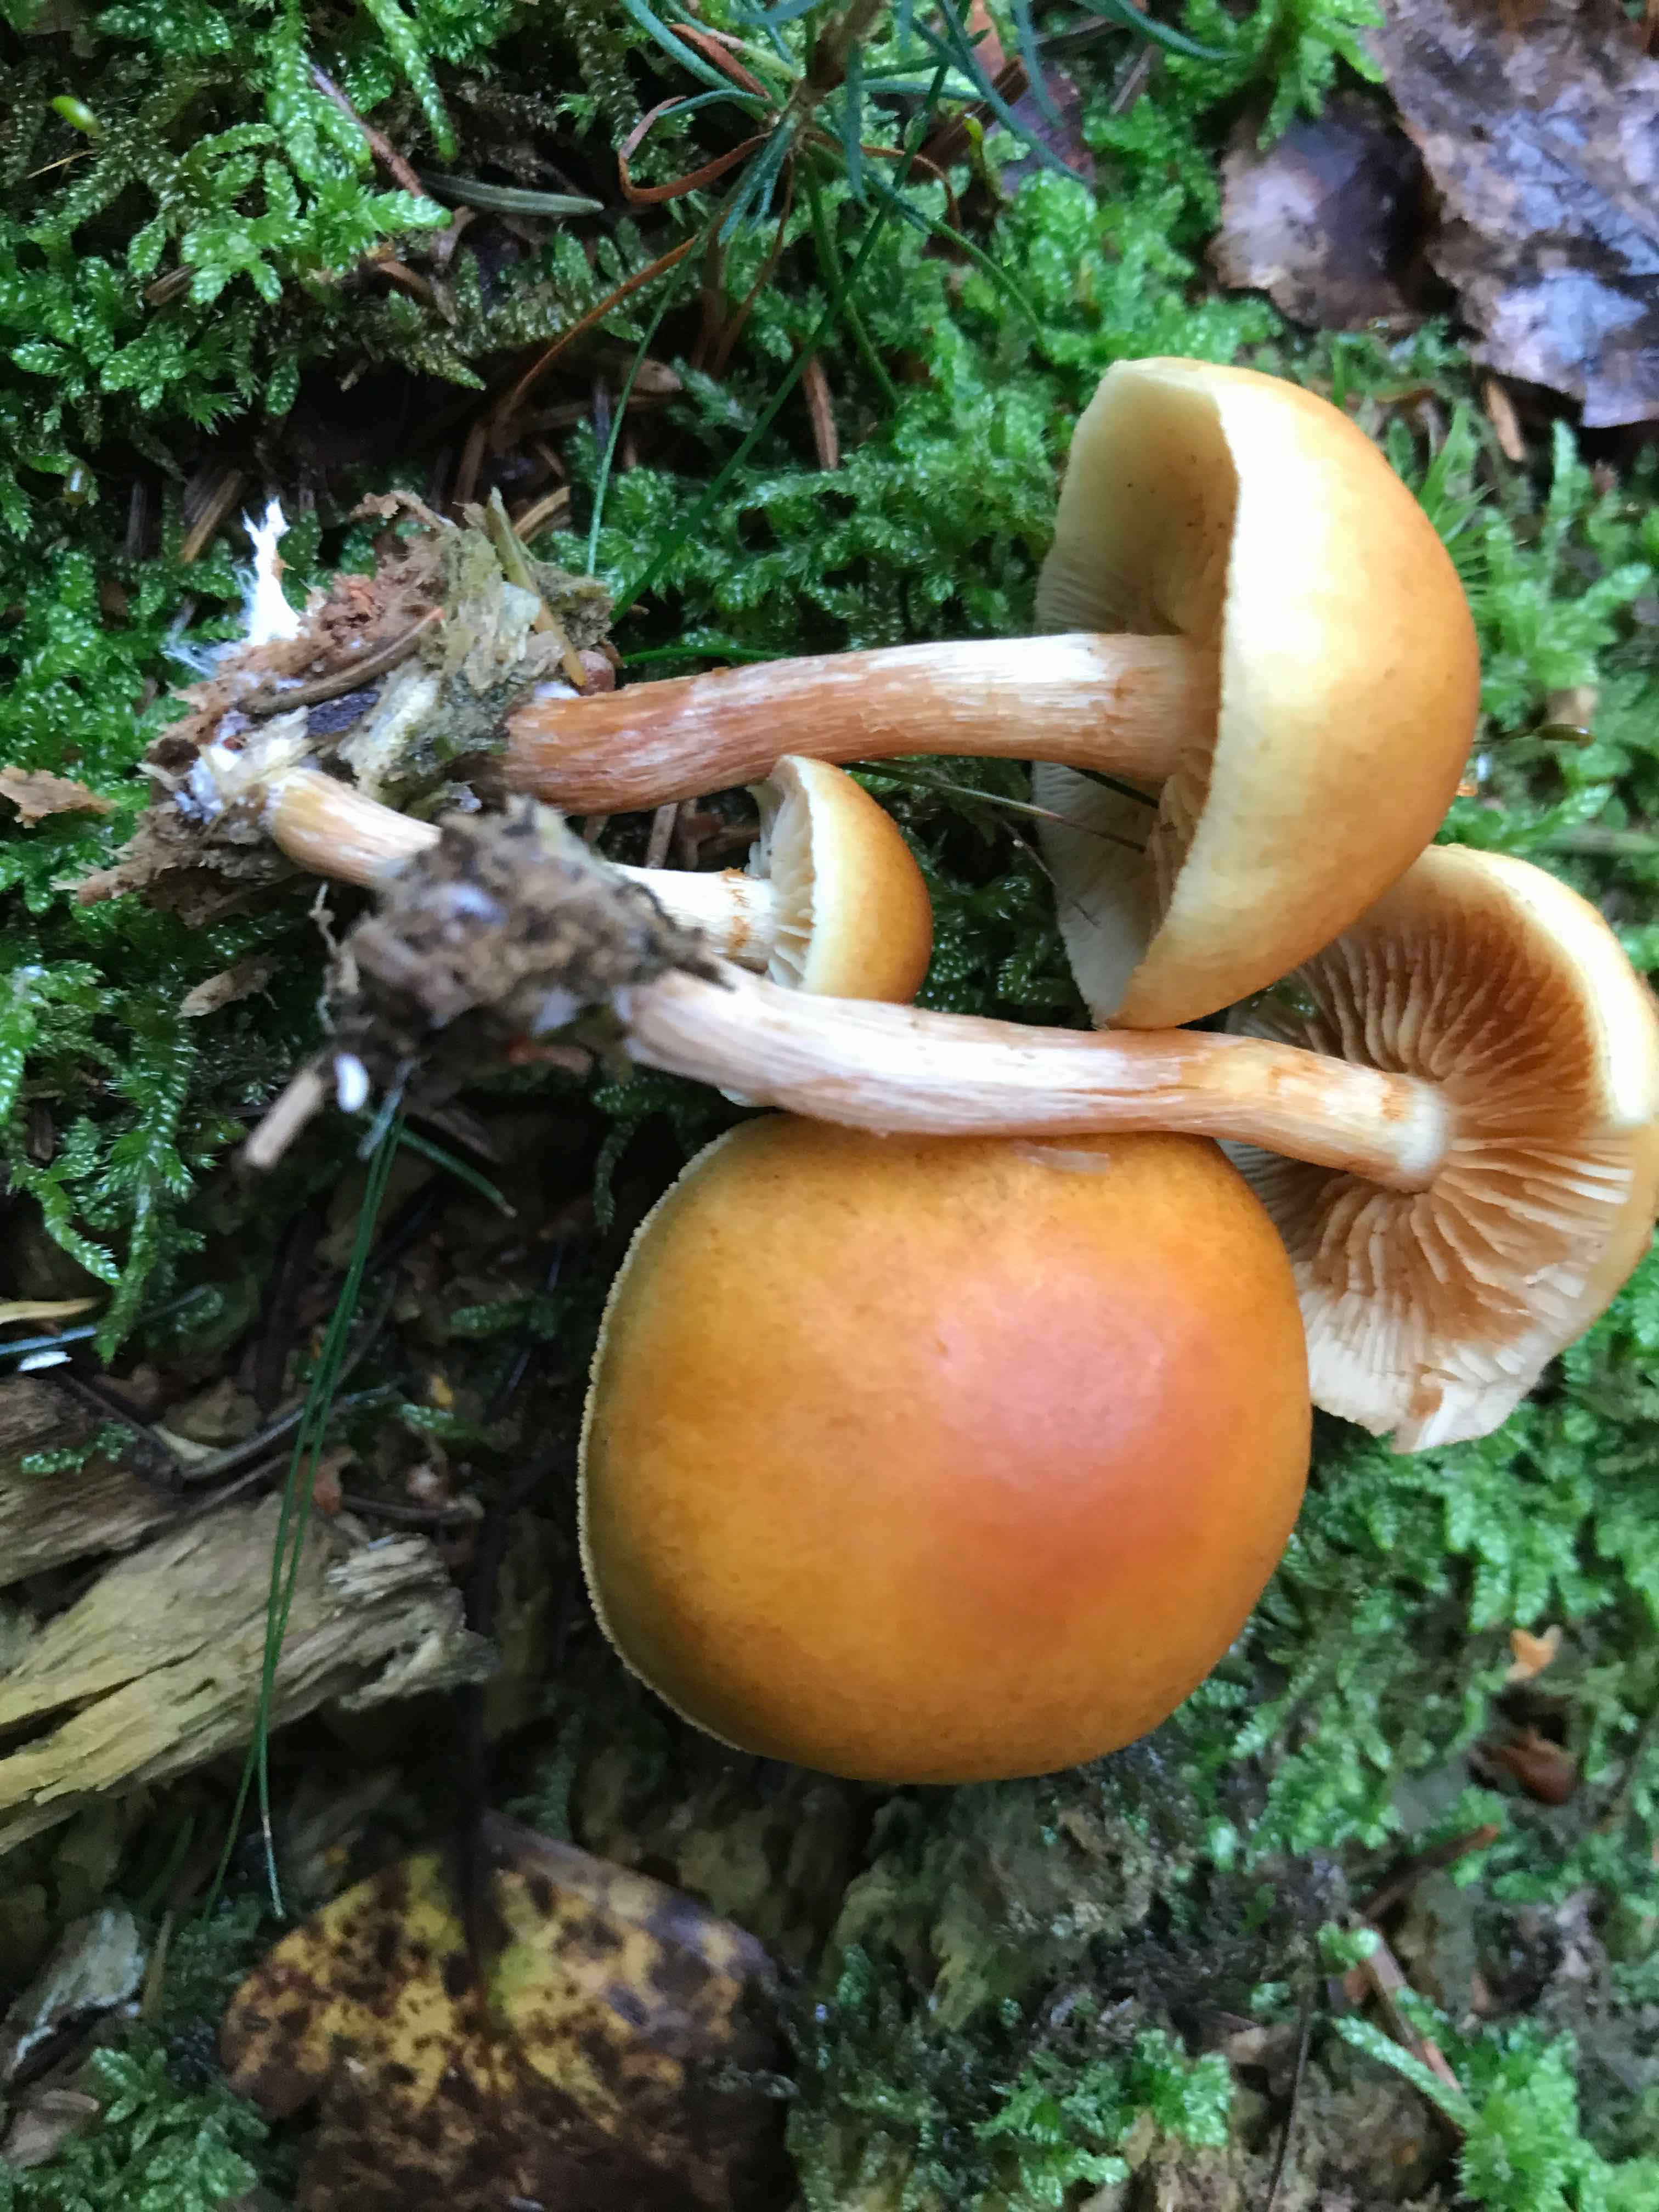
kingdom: Fungi
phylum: Basidiomycota
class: Agaricomycetes
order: Agaricales
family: Hymenogastraceae
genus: Gymnopilus
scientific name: Gymnopilus penetrans
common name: plettet flammehat
